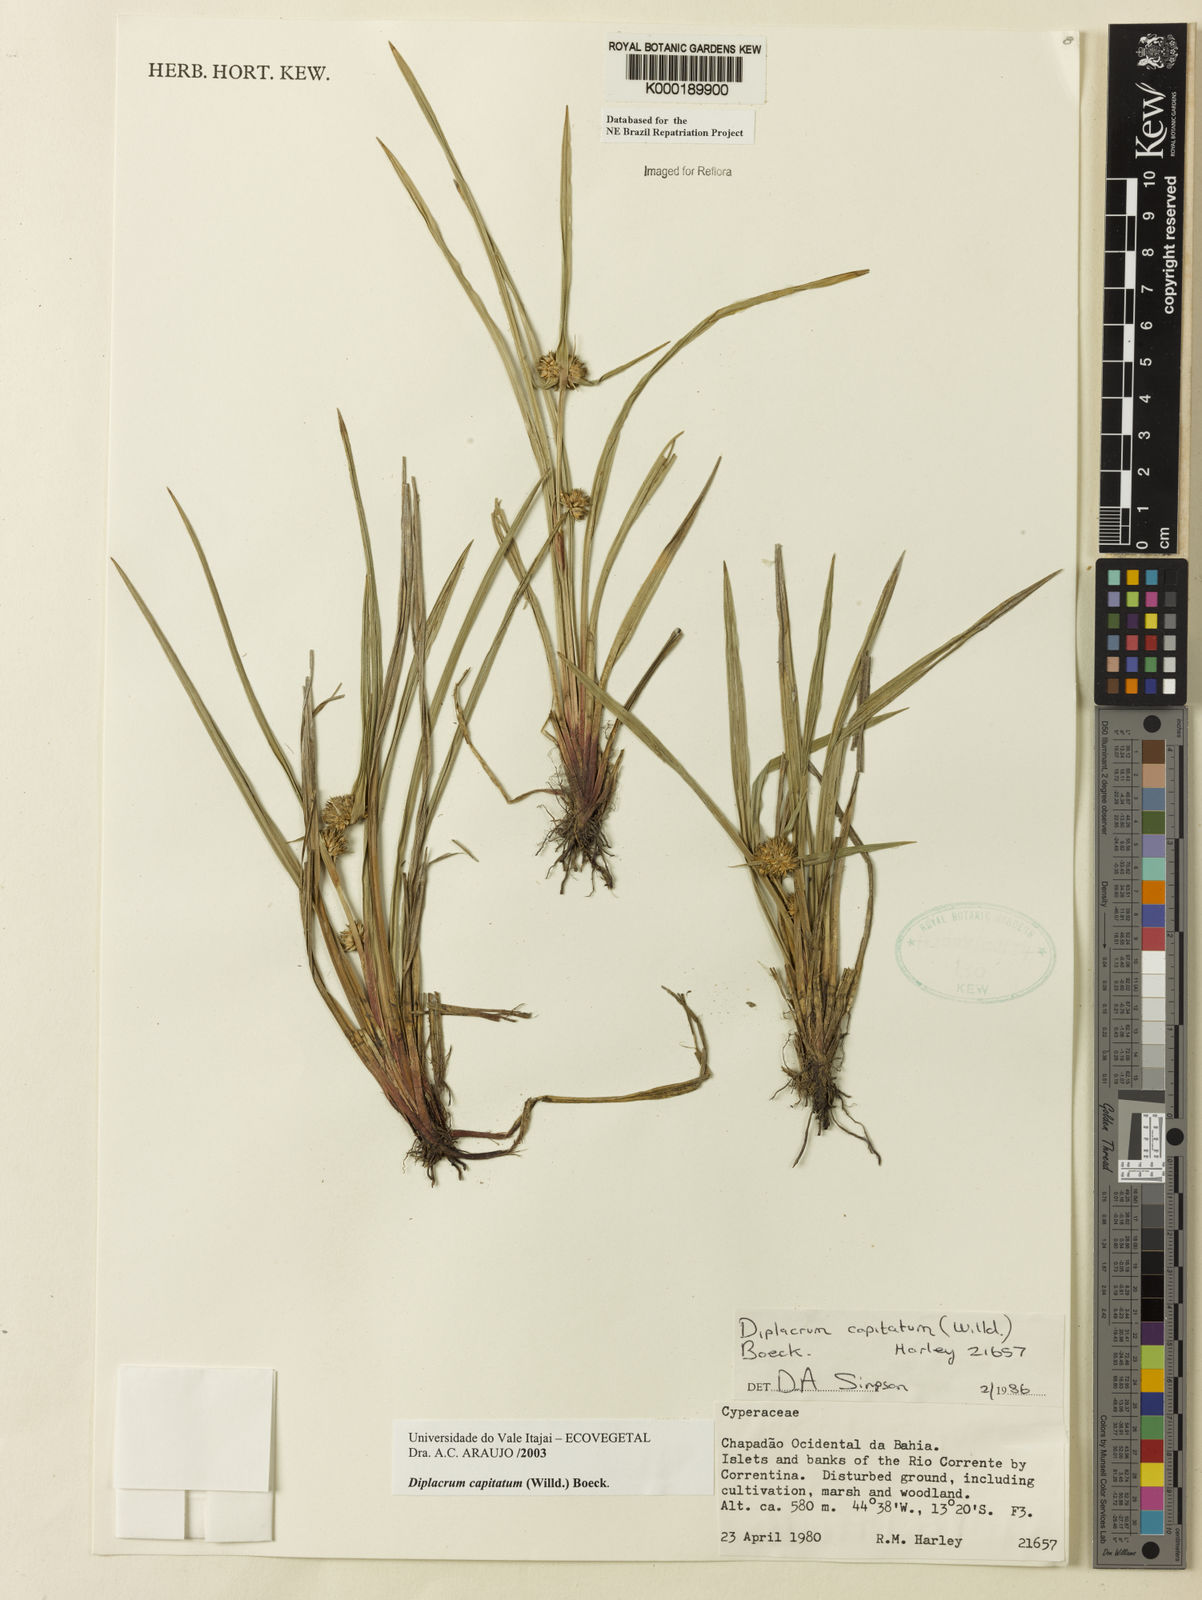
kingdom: Plantae
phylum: Tracheophyta
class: Liliopsida
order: Poales
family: Cyperaceae
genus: Diplacrum
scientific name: Diplacrum capitatum
